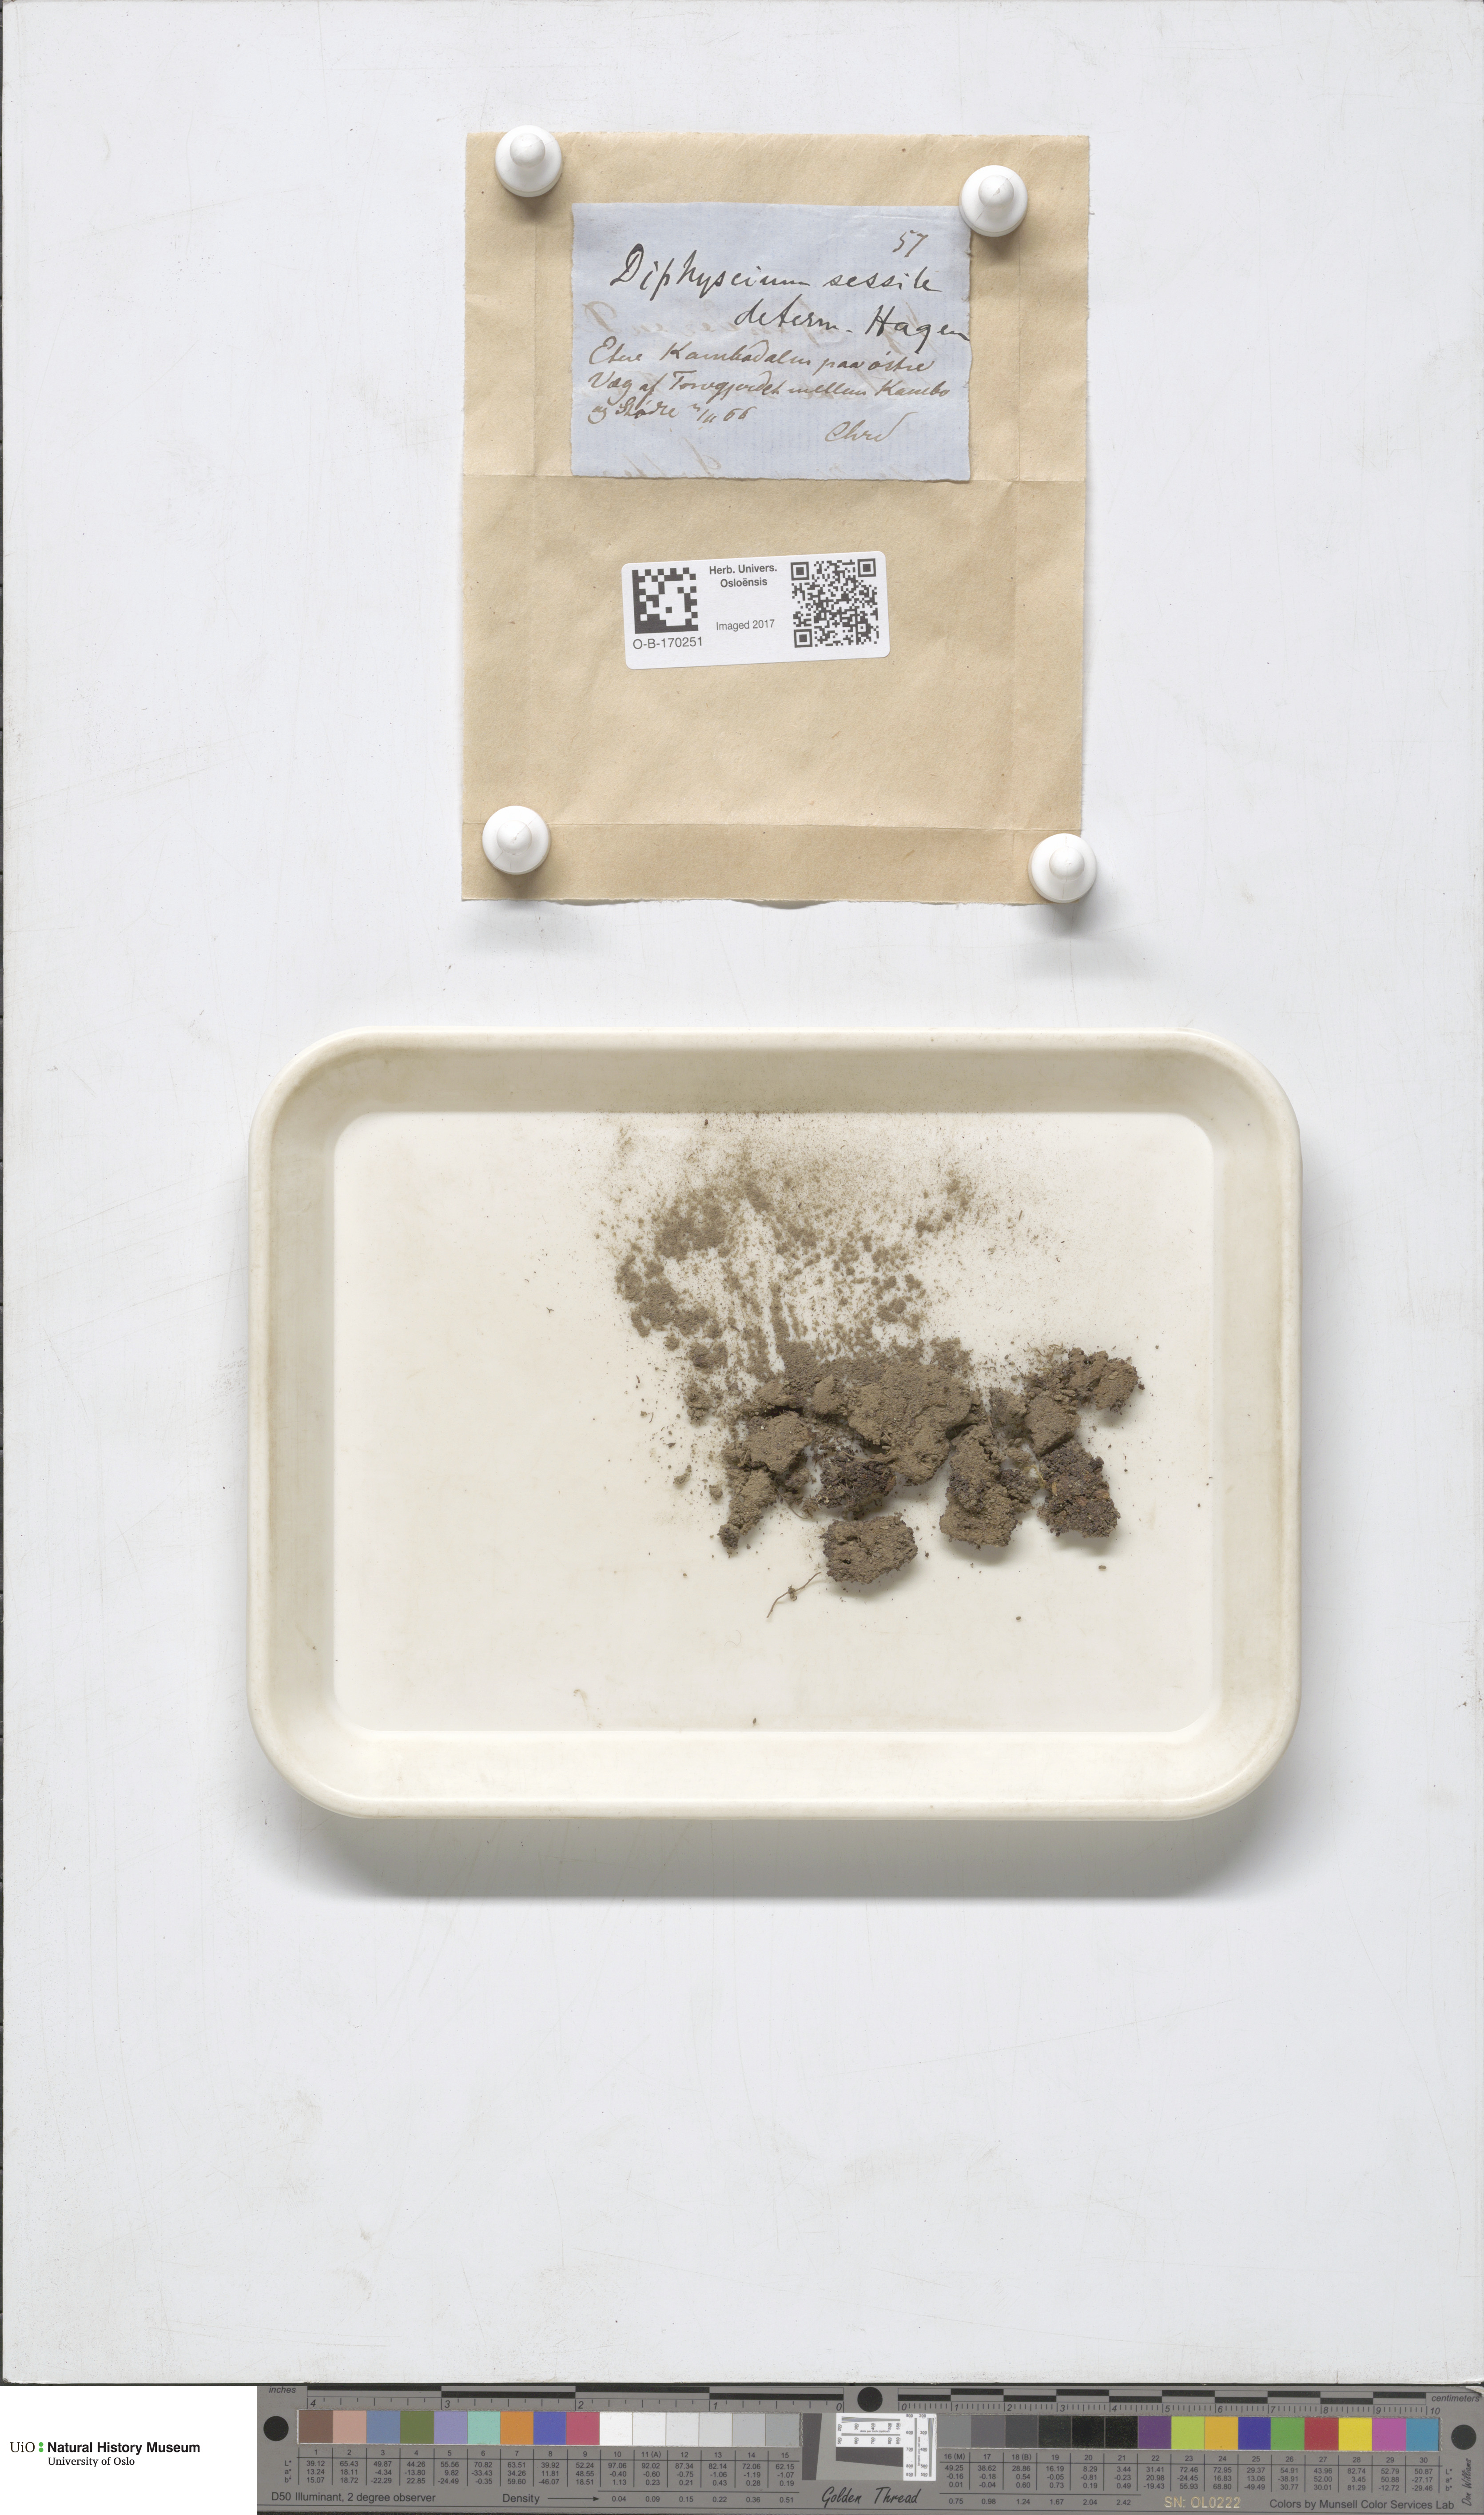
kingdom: Plantae
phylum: Bryophyta
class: Bryopsida
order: Diphysciales
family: Diphysciaceae
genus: Diphyscium
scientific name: Diphyscium foliosum
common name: Nut moss
